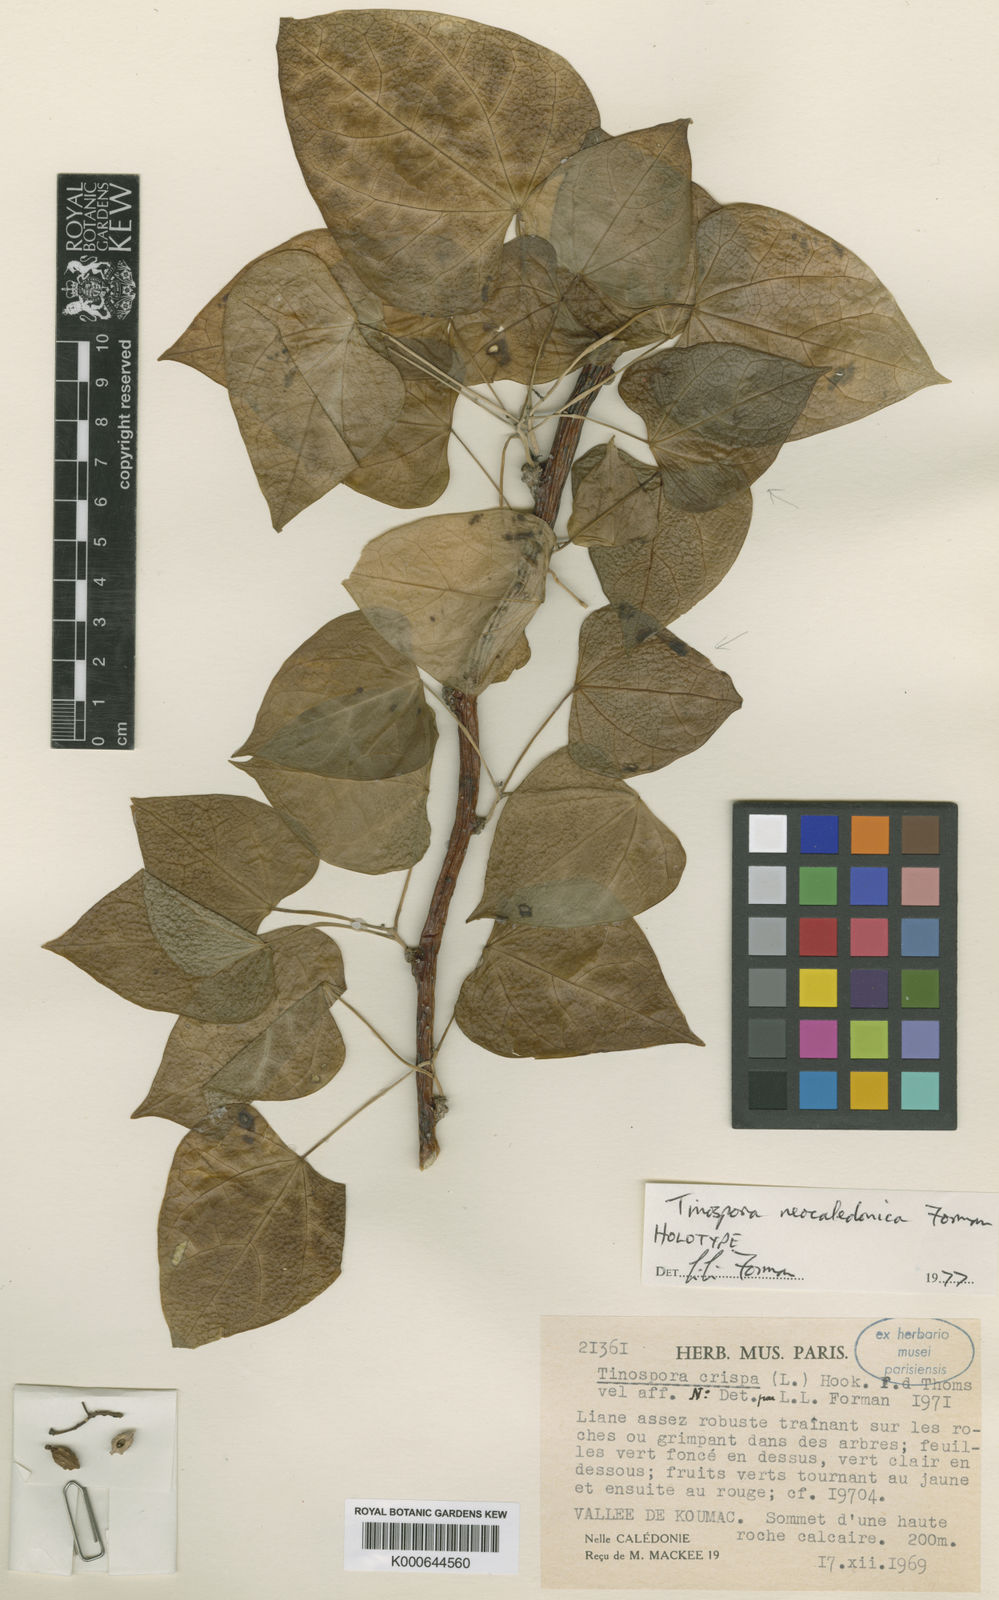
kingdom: Plantae
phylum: Tracheophyta
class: Magnoliopsida
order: Ranunculales
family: Menispermaceae
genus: Tinospora
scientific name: Tinospora neocaledonica
